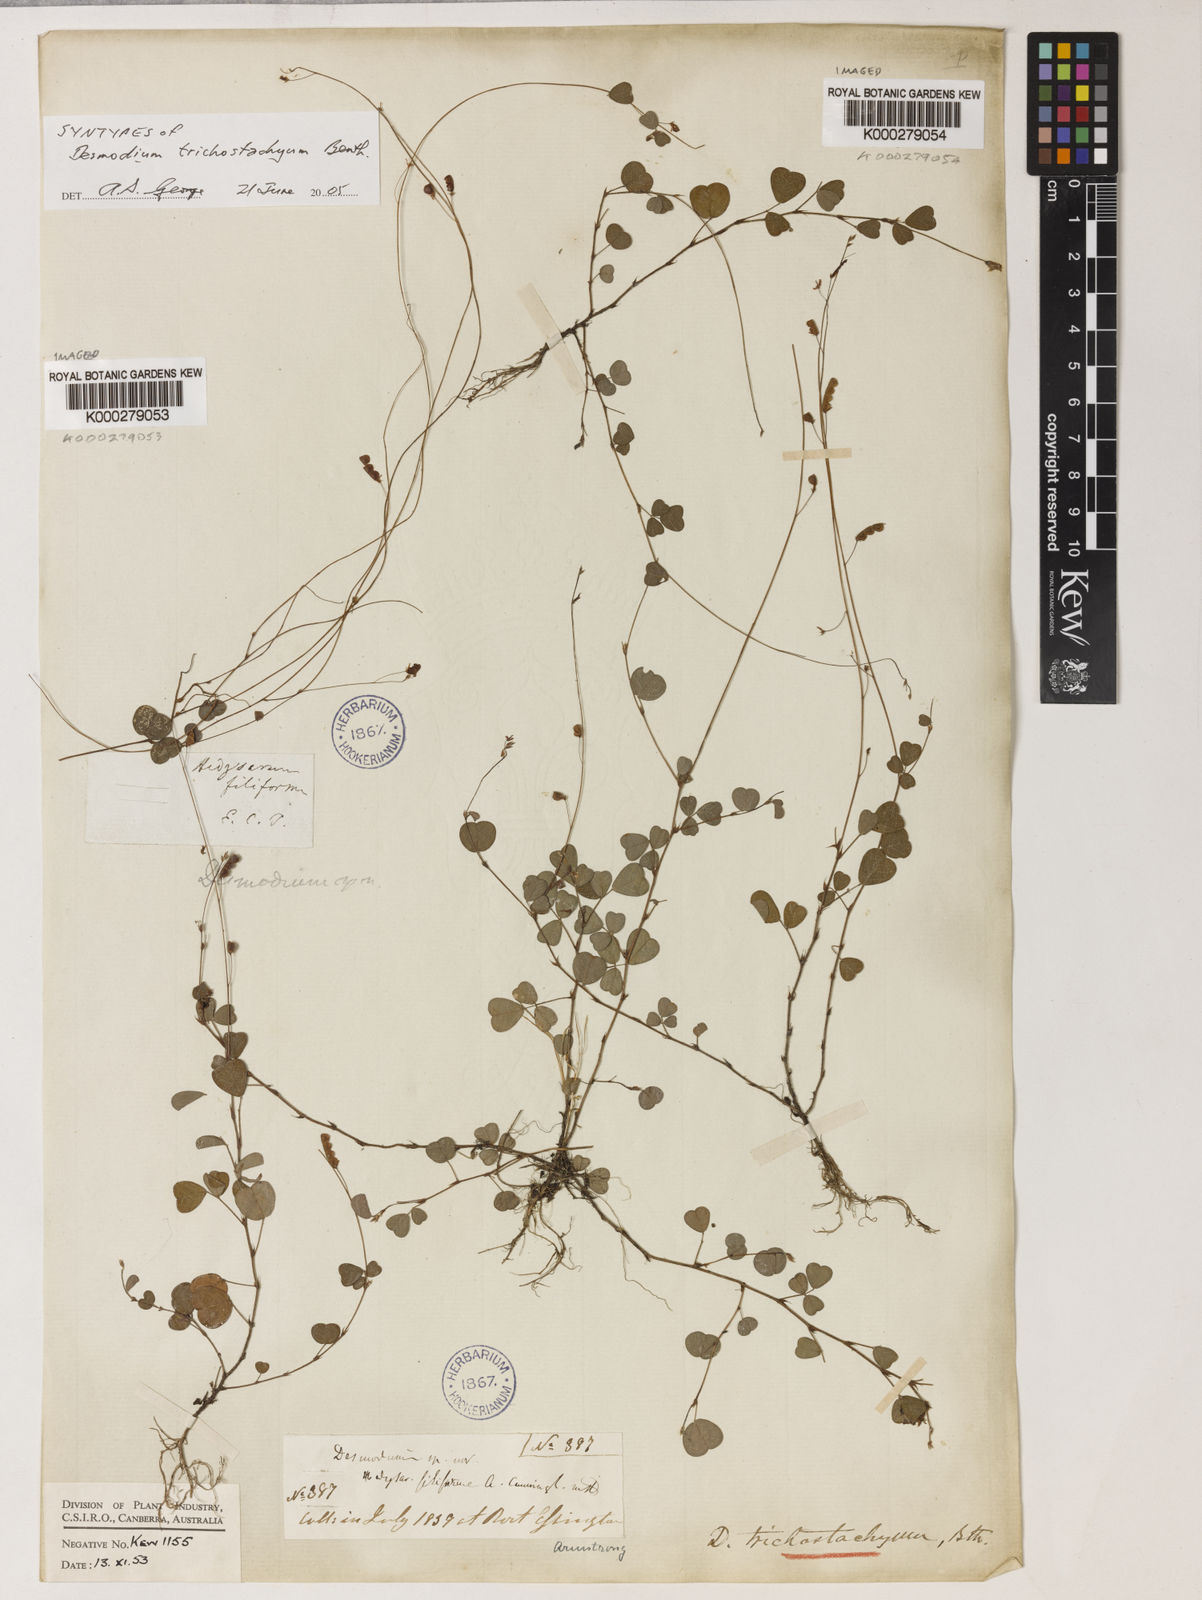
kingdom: Plantae
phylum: Tracheophyta
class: Magnoliopsida
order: Fabales
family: Fabaceae
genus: Grona
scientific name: Grona trichostachya
